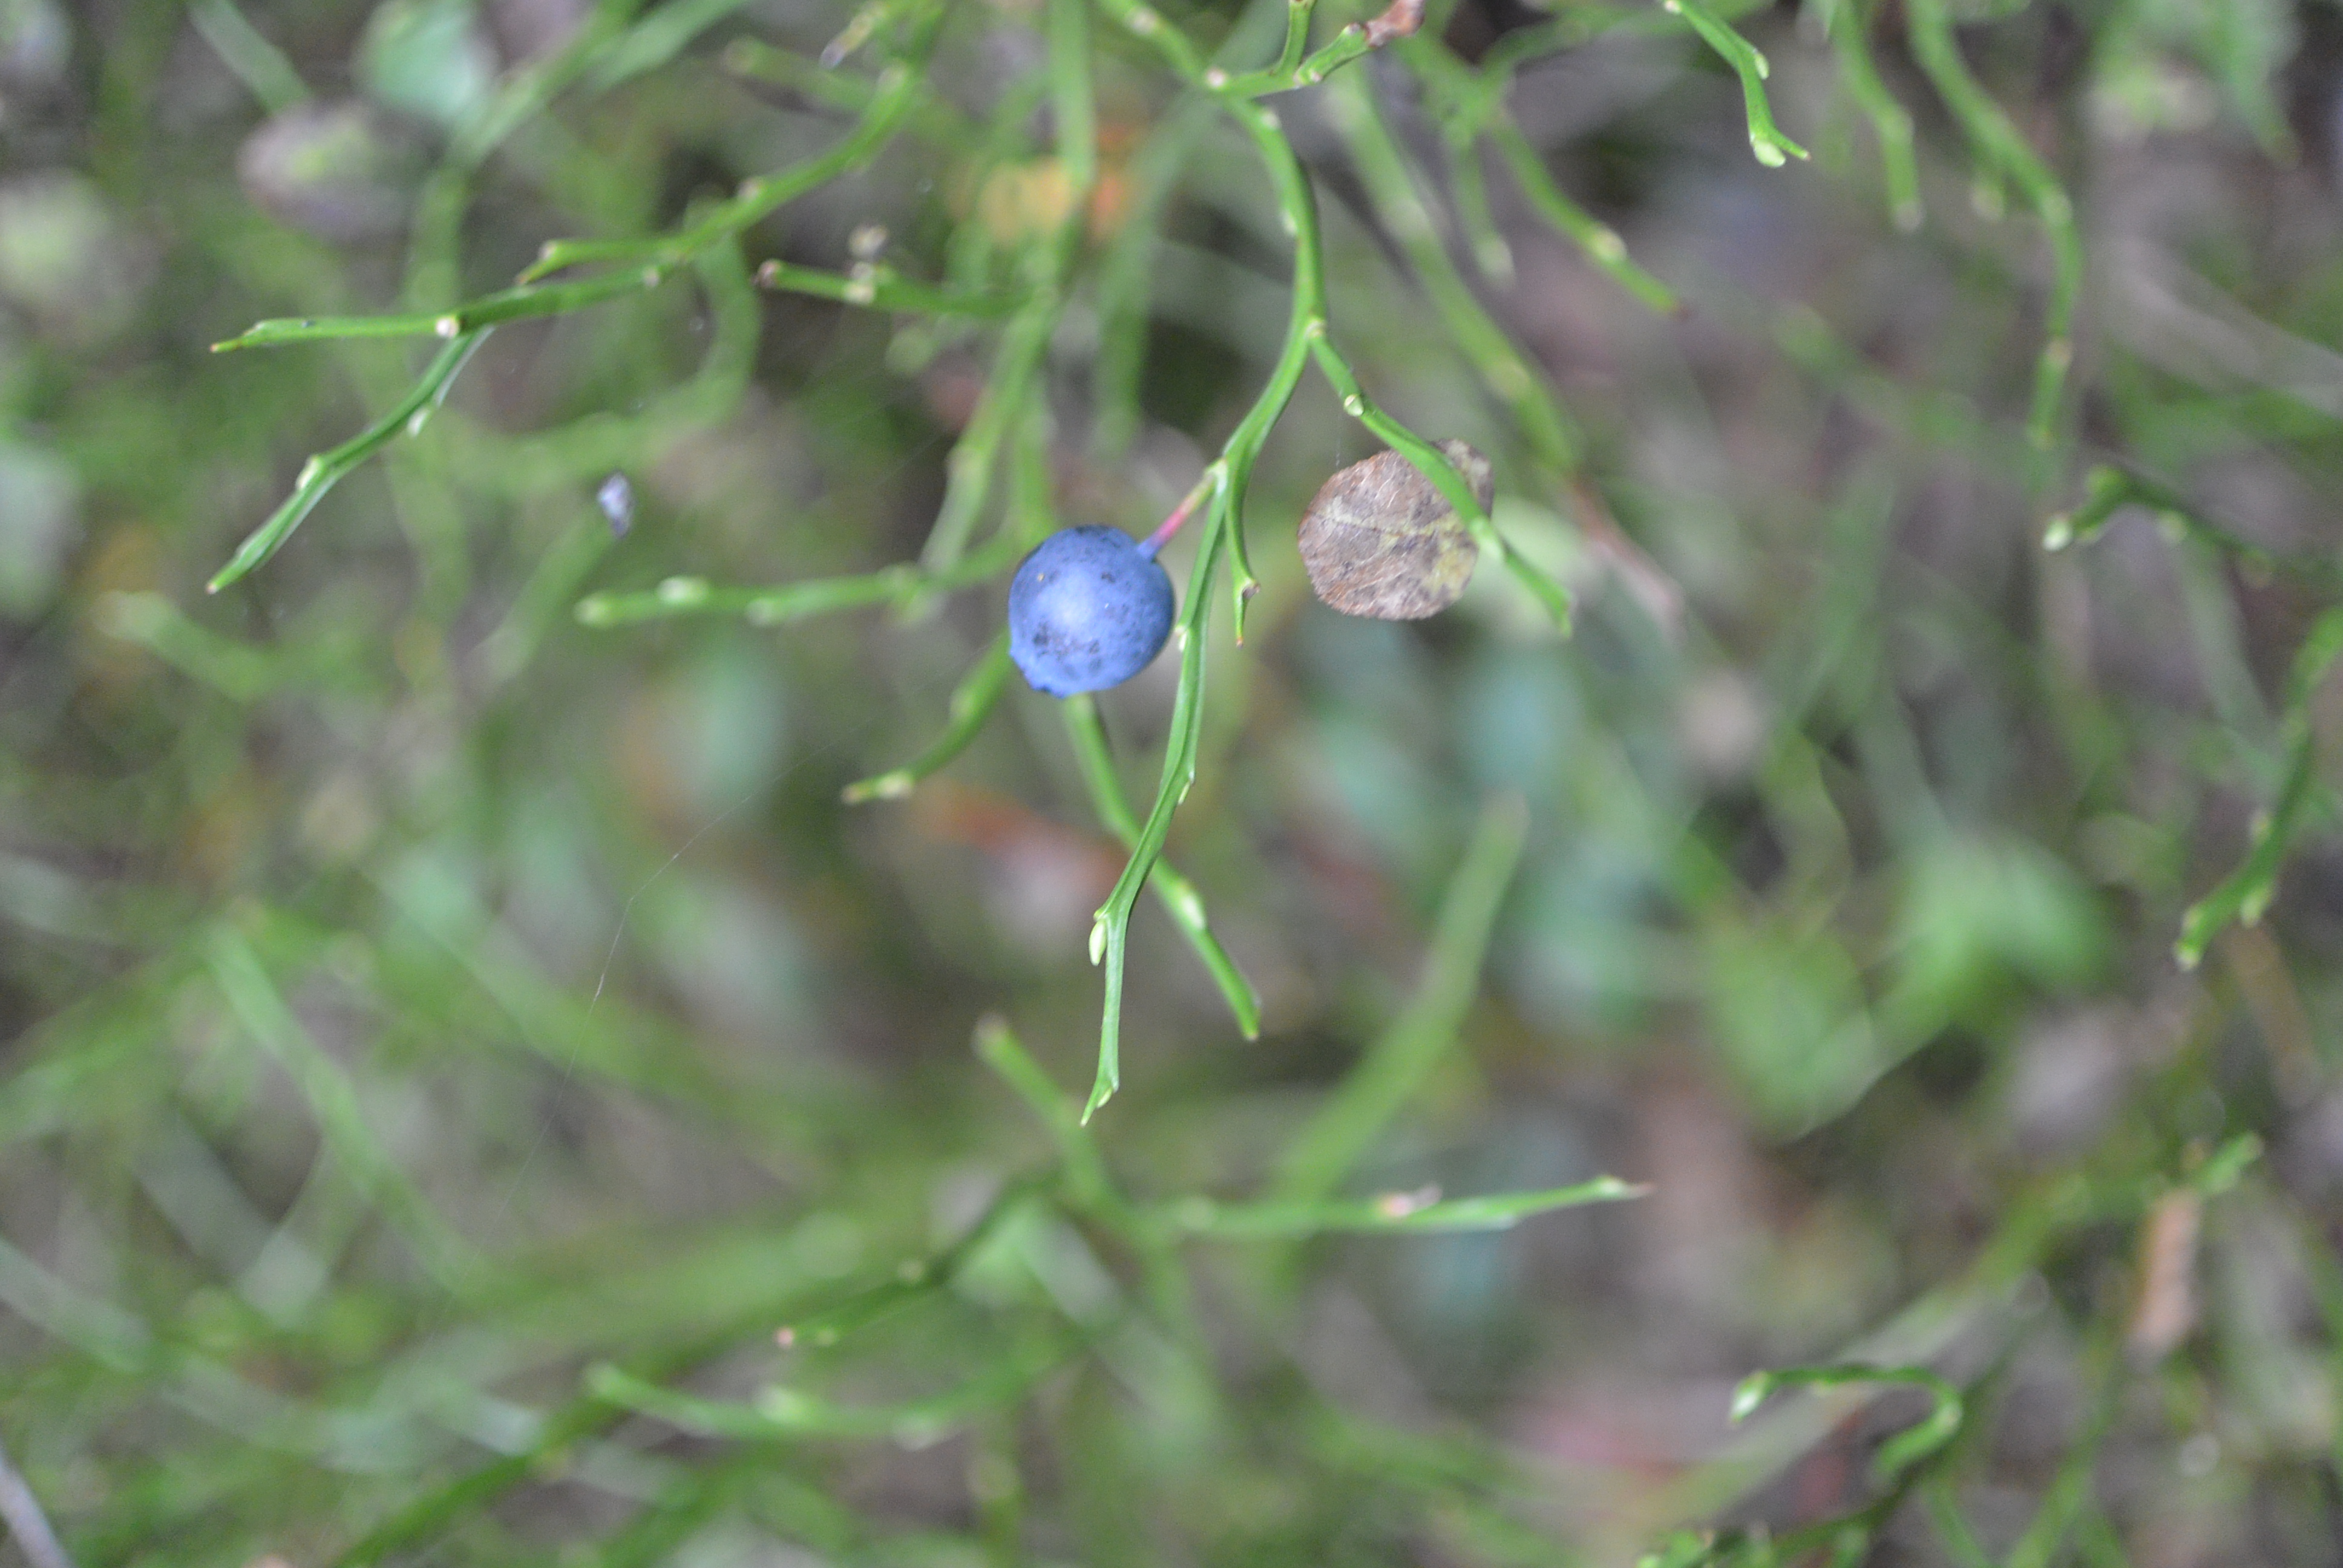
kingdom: Plantae
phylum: Tracheophyta
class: Magnoliopsida
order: Ericales
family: Ericaceae
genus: Vaccinium
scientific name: Vaccinium myrtillus
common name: Bilberry
